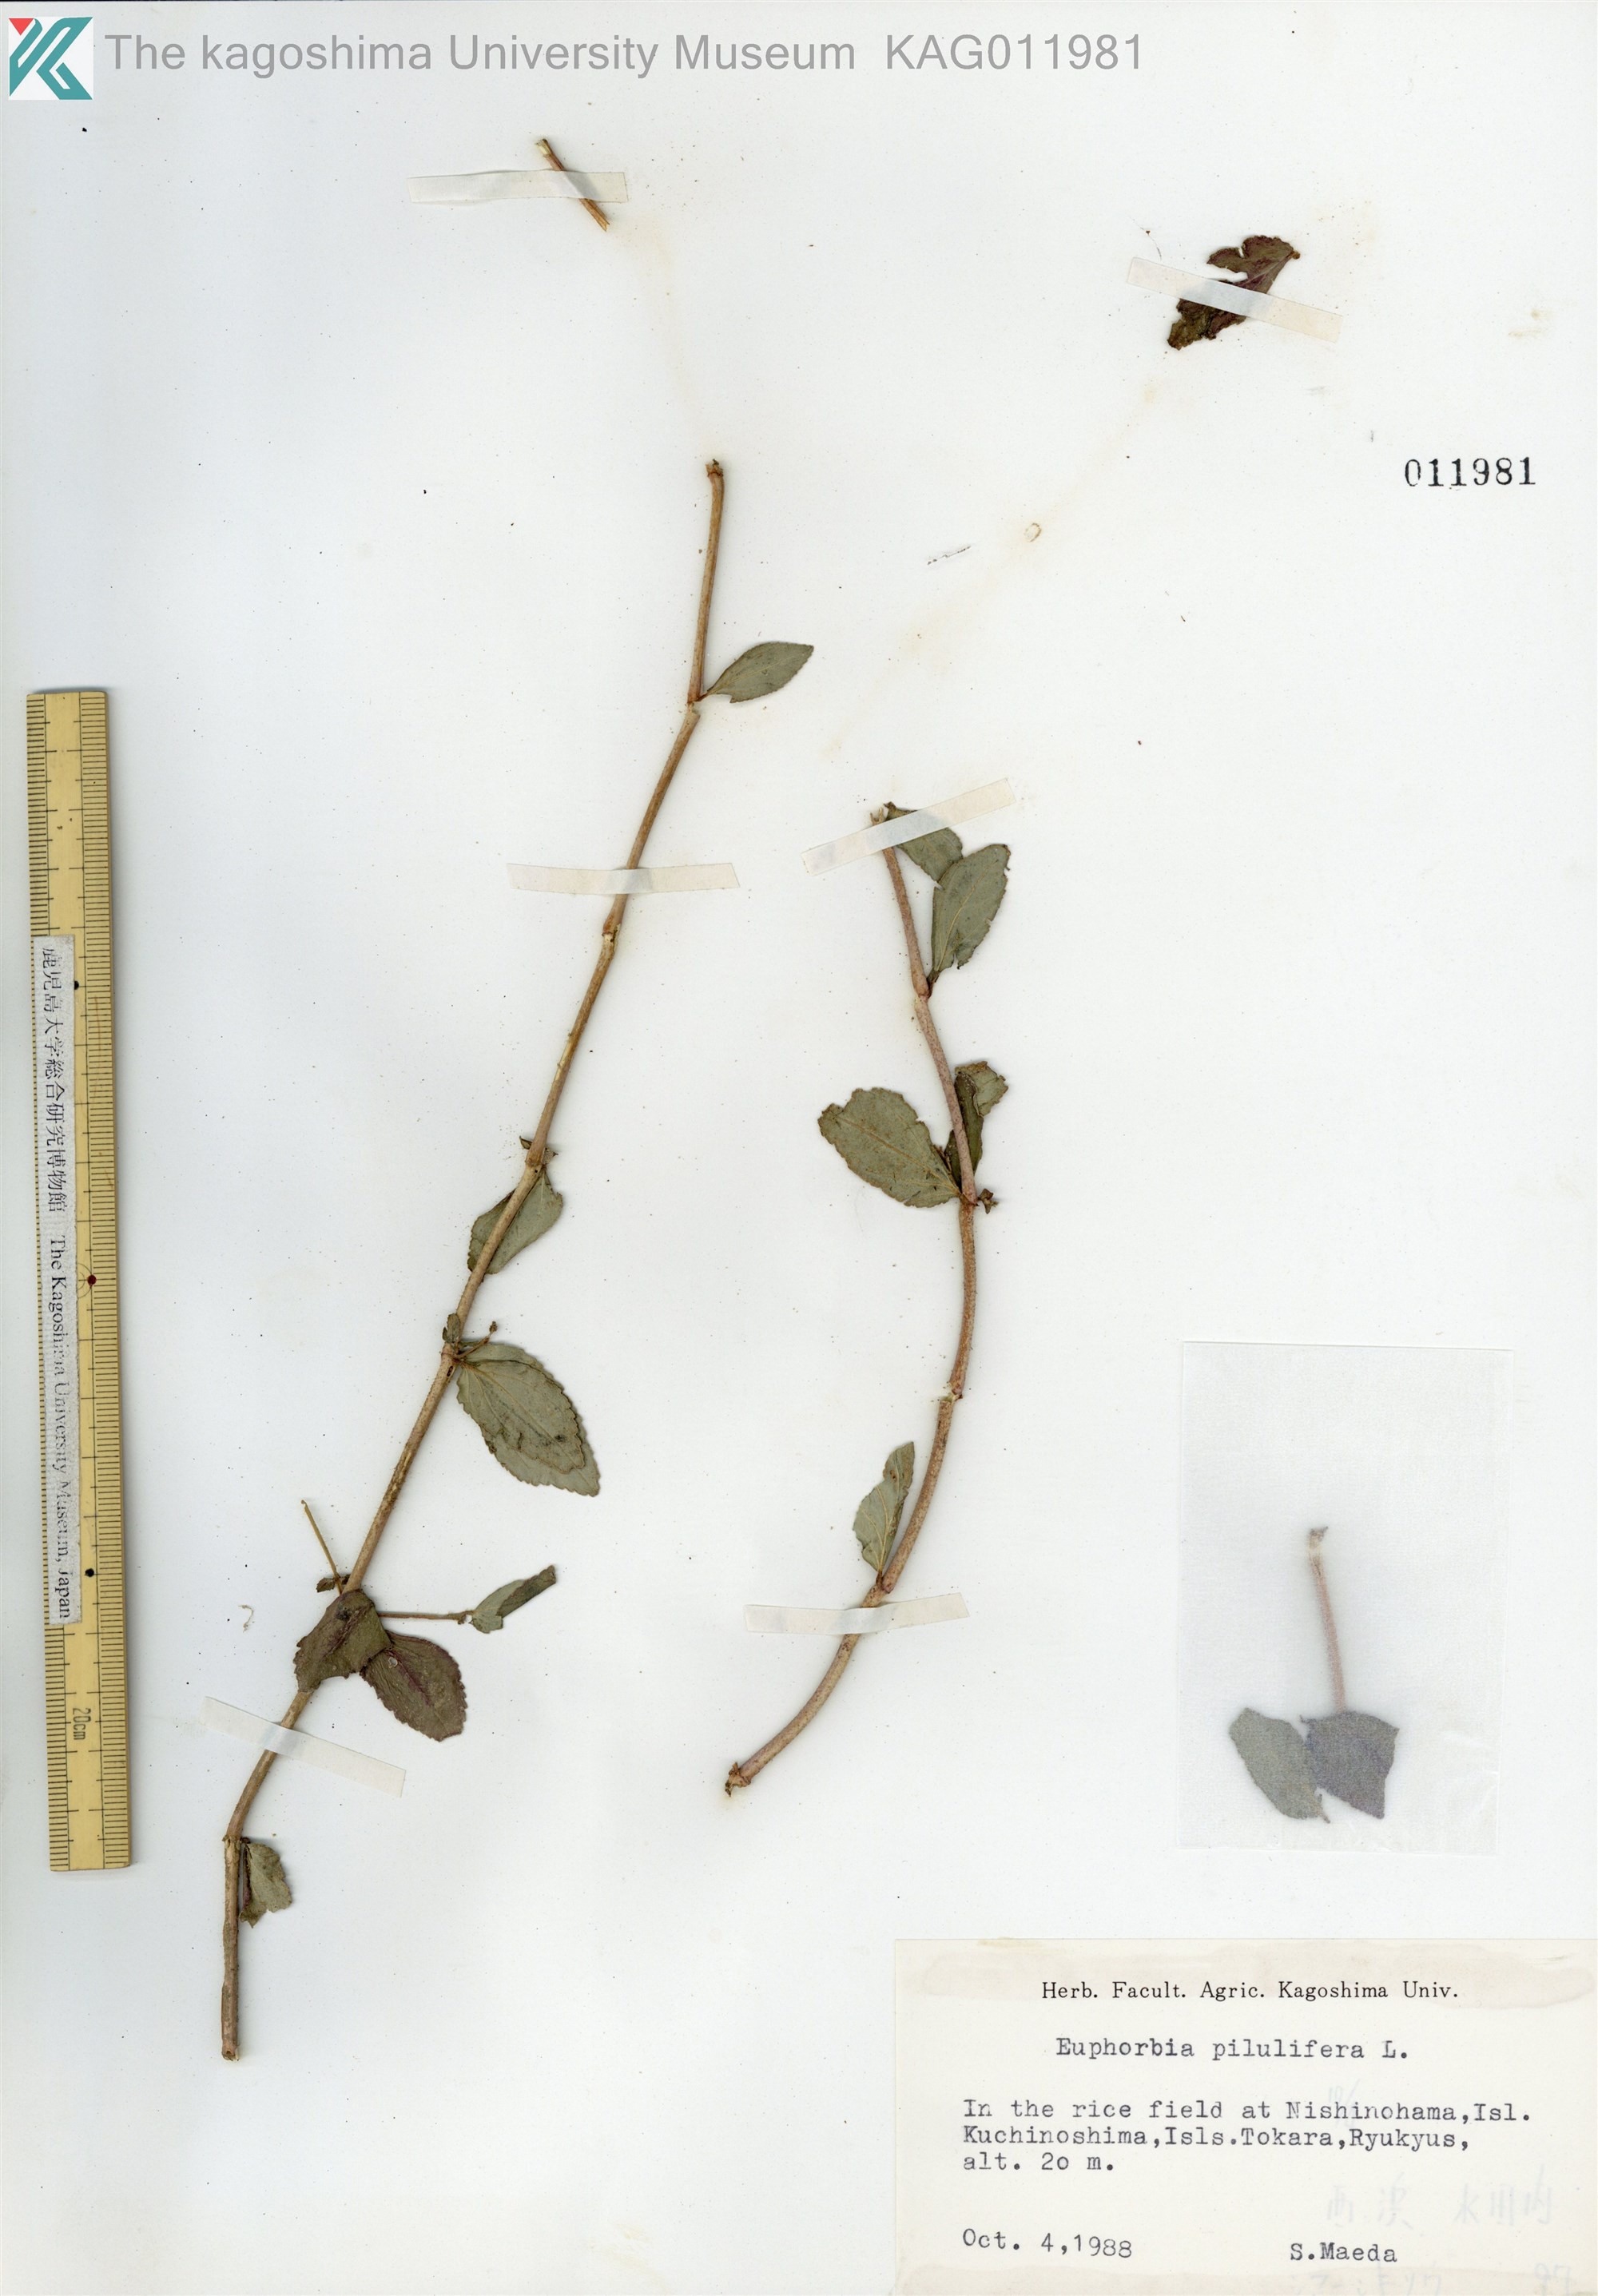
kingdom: Plantae
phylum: Tracheophyta
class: Magnoliopsida
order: Malpighiales
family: Euphorbiaceae
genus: Euphorbia
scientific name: Euphorbia hirta
